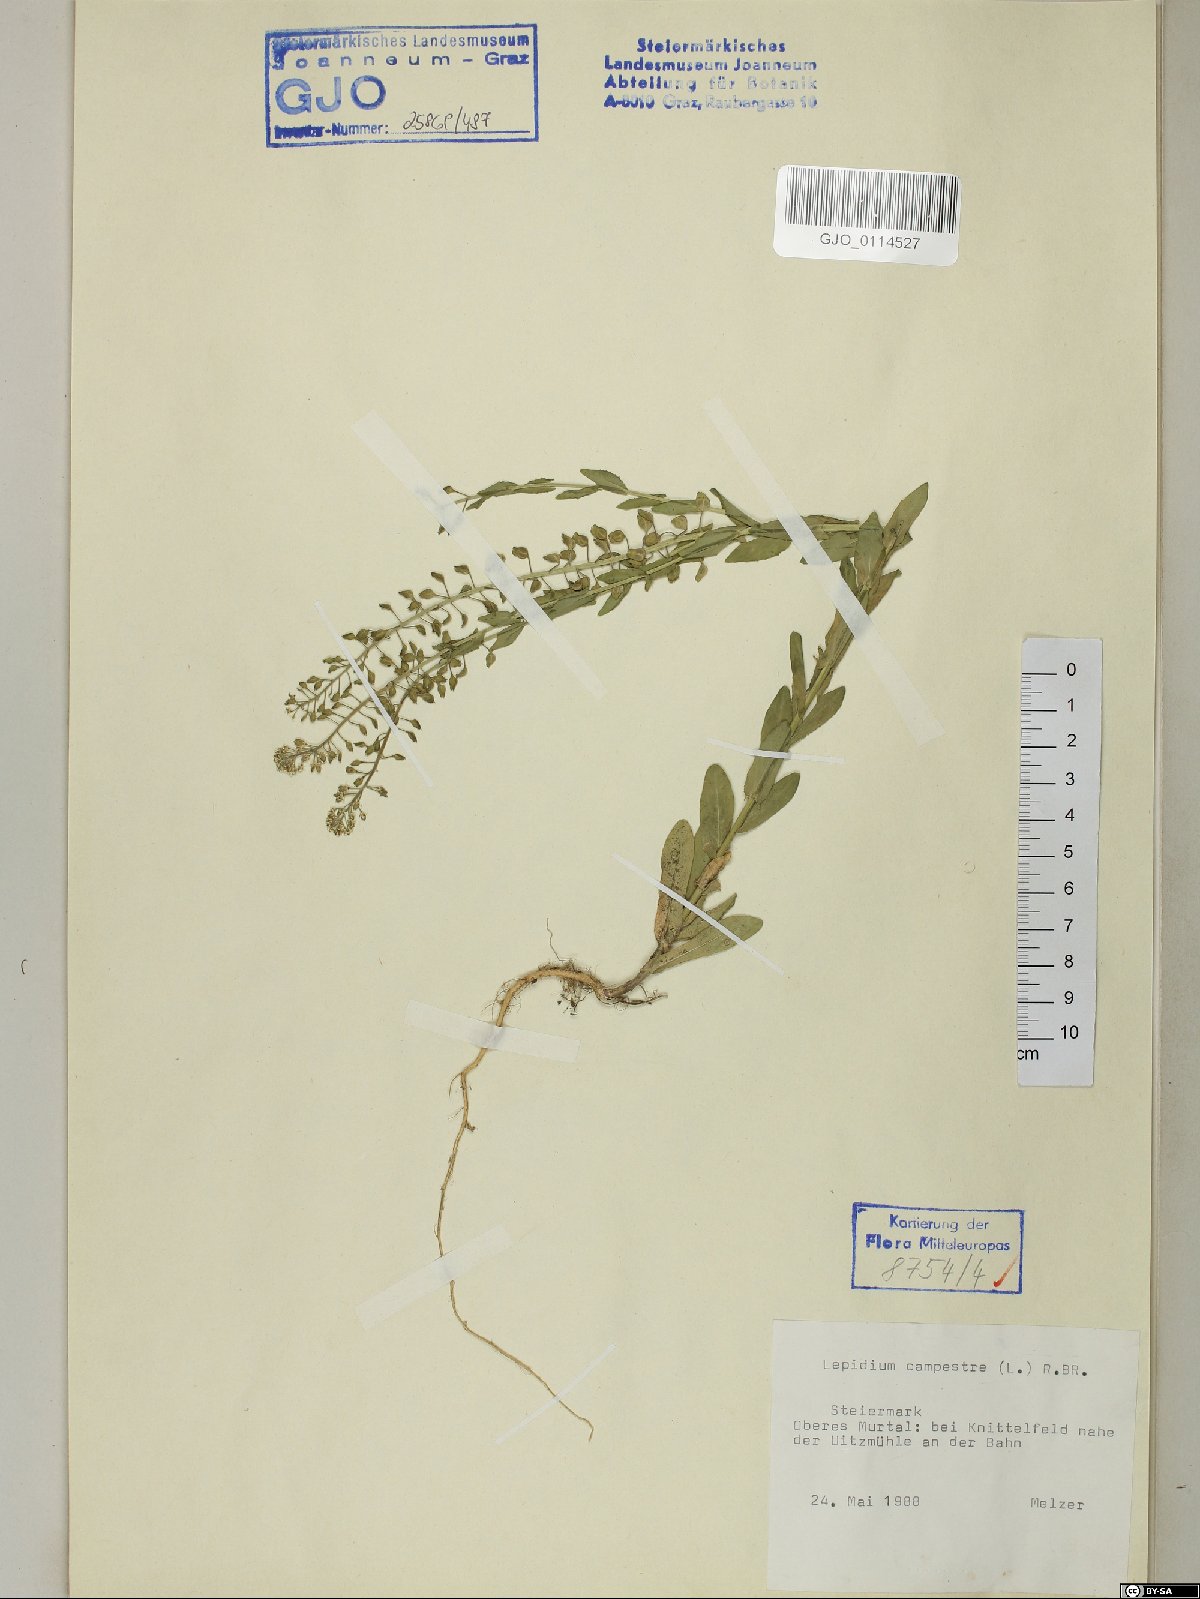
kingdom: Plantae
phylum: Tracheophyta
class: Magnoliopsida
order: Brassicales
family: Brassicaceae
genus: Lepidium
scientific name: Lepidium campestre
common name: Field pepperwort
